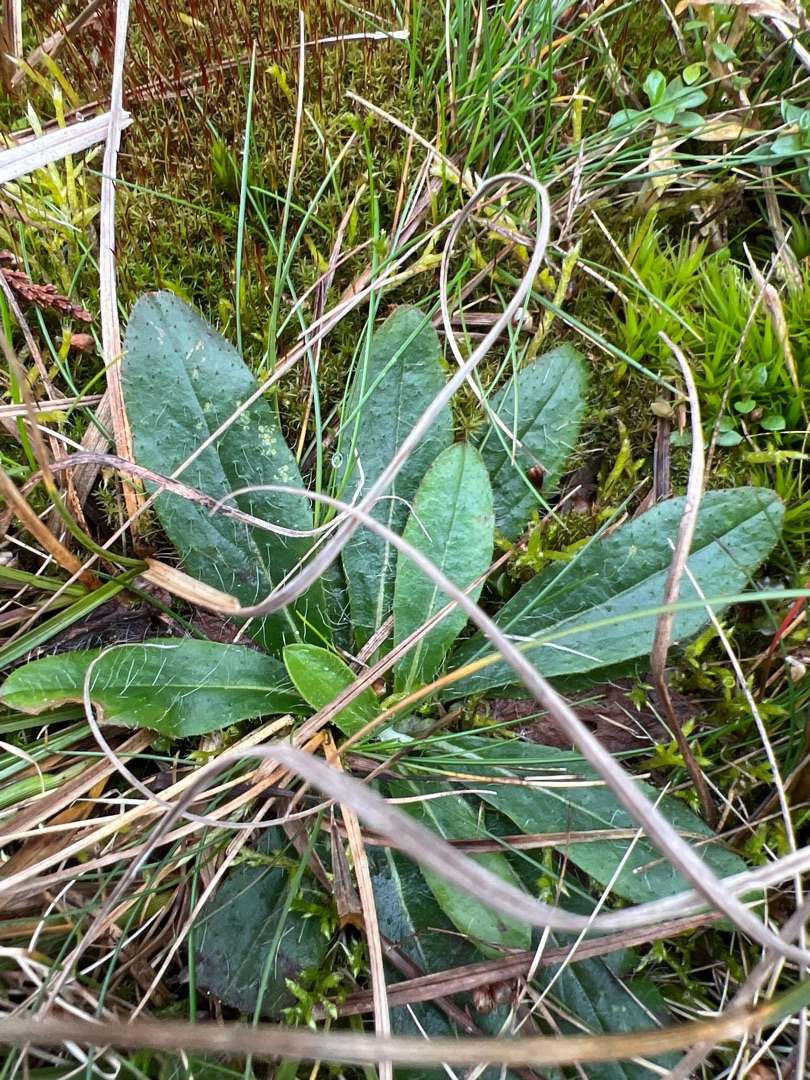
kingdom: Plantae
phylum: Tracheophyta
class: Magnoliopsida
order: Asterales
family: Asteraceae
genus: Pilosella
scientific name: Pilosella officinarum
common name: Håret høgeurt
